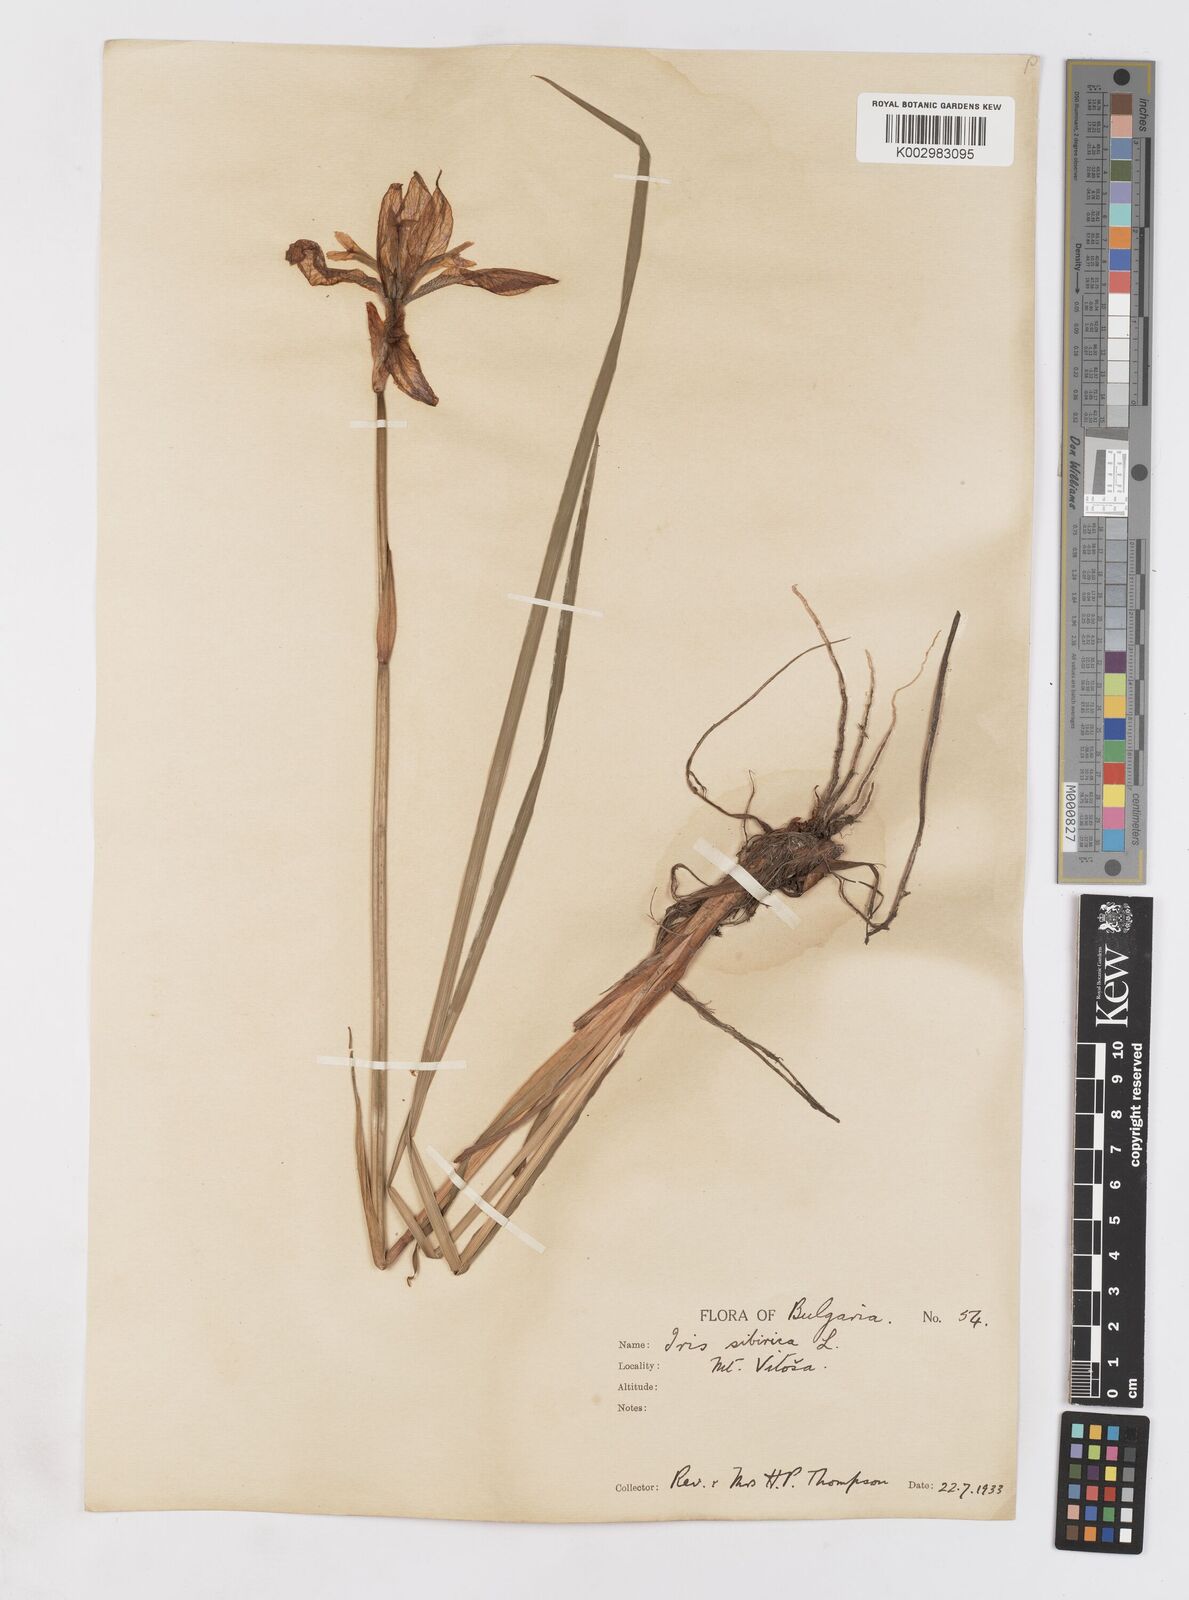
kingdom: Plantae
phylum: Tracheophyta
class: Liliopsida
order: Asparagales
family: Iridaceae
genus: Iris
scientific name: Iris sibirica
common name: Siberian iris
